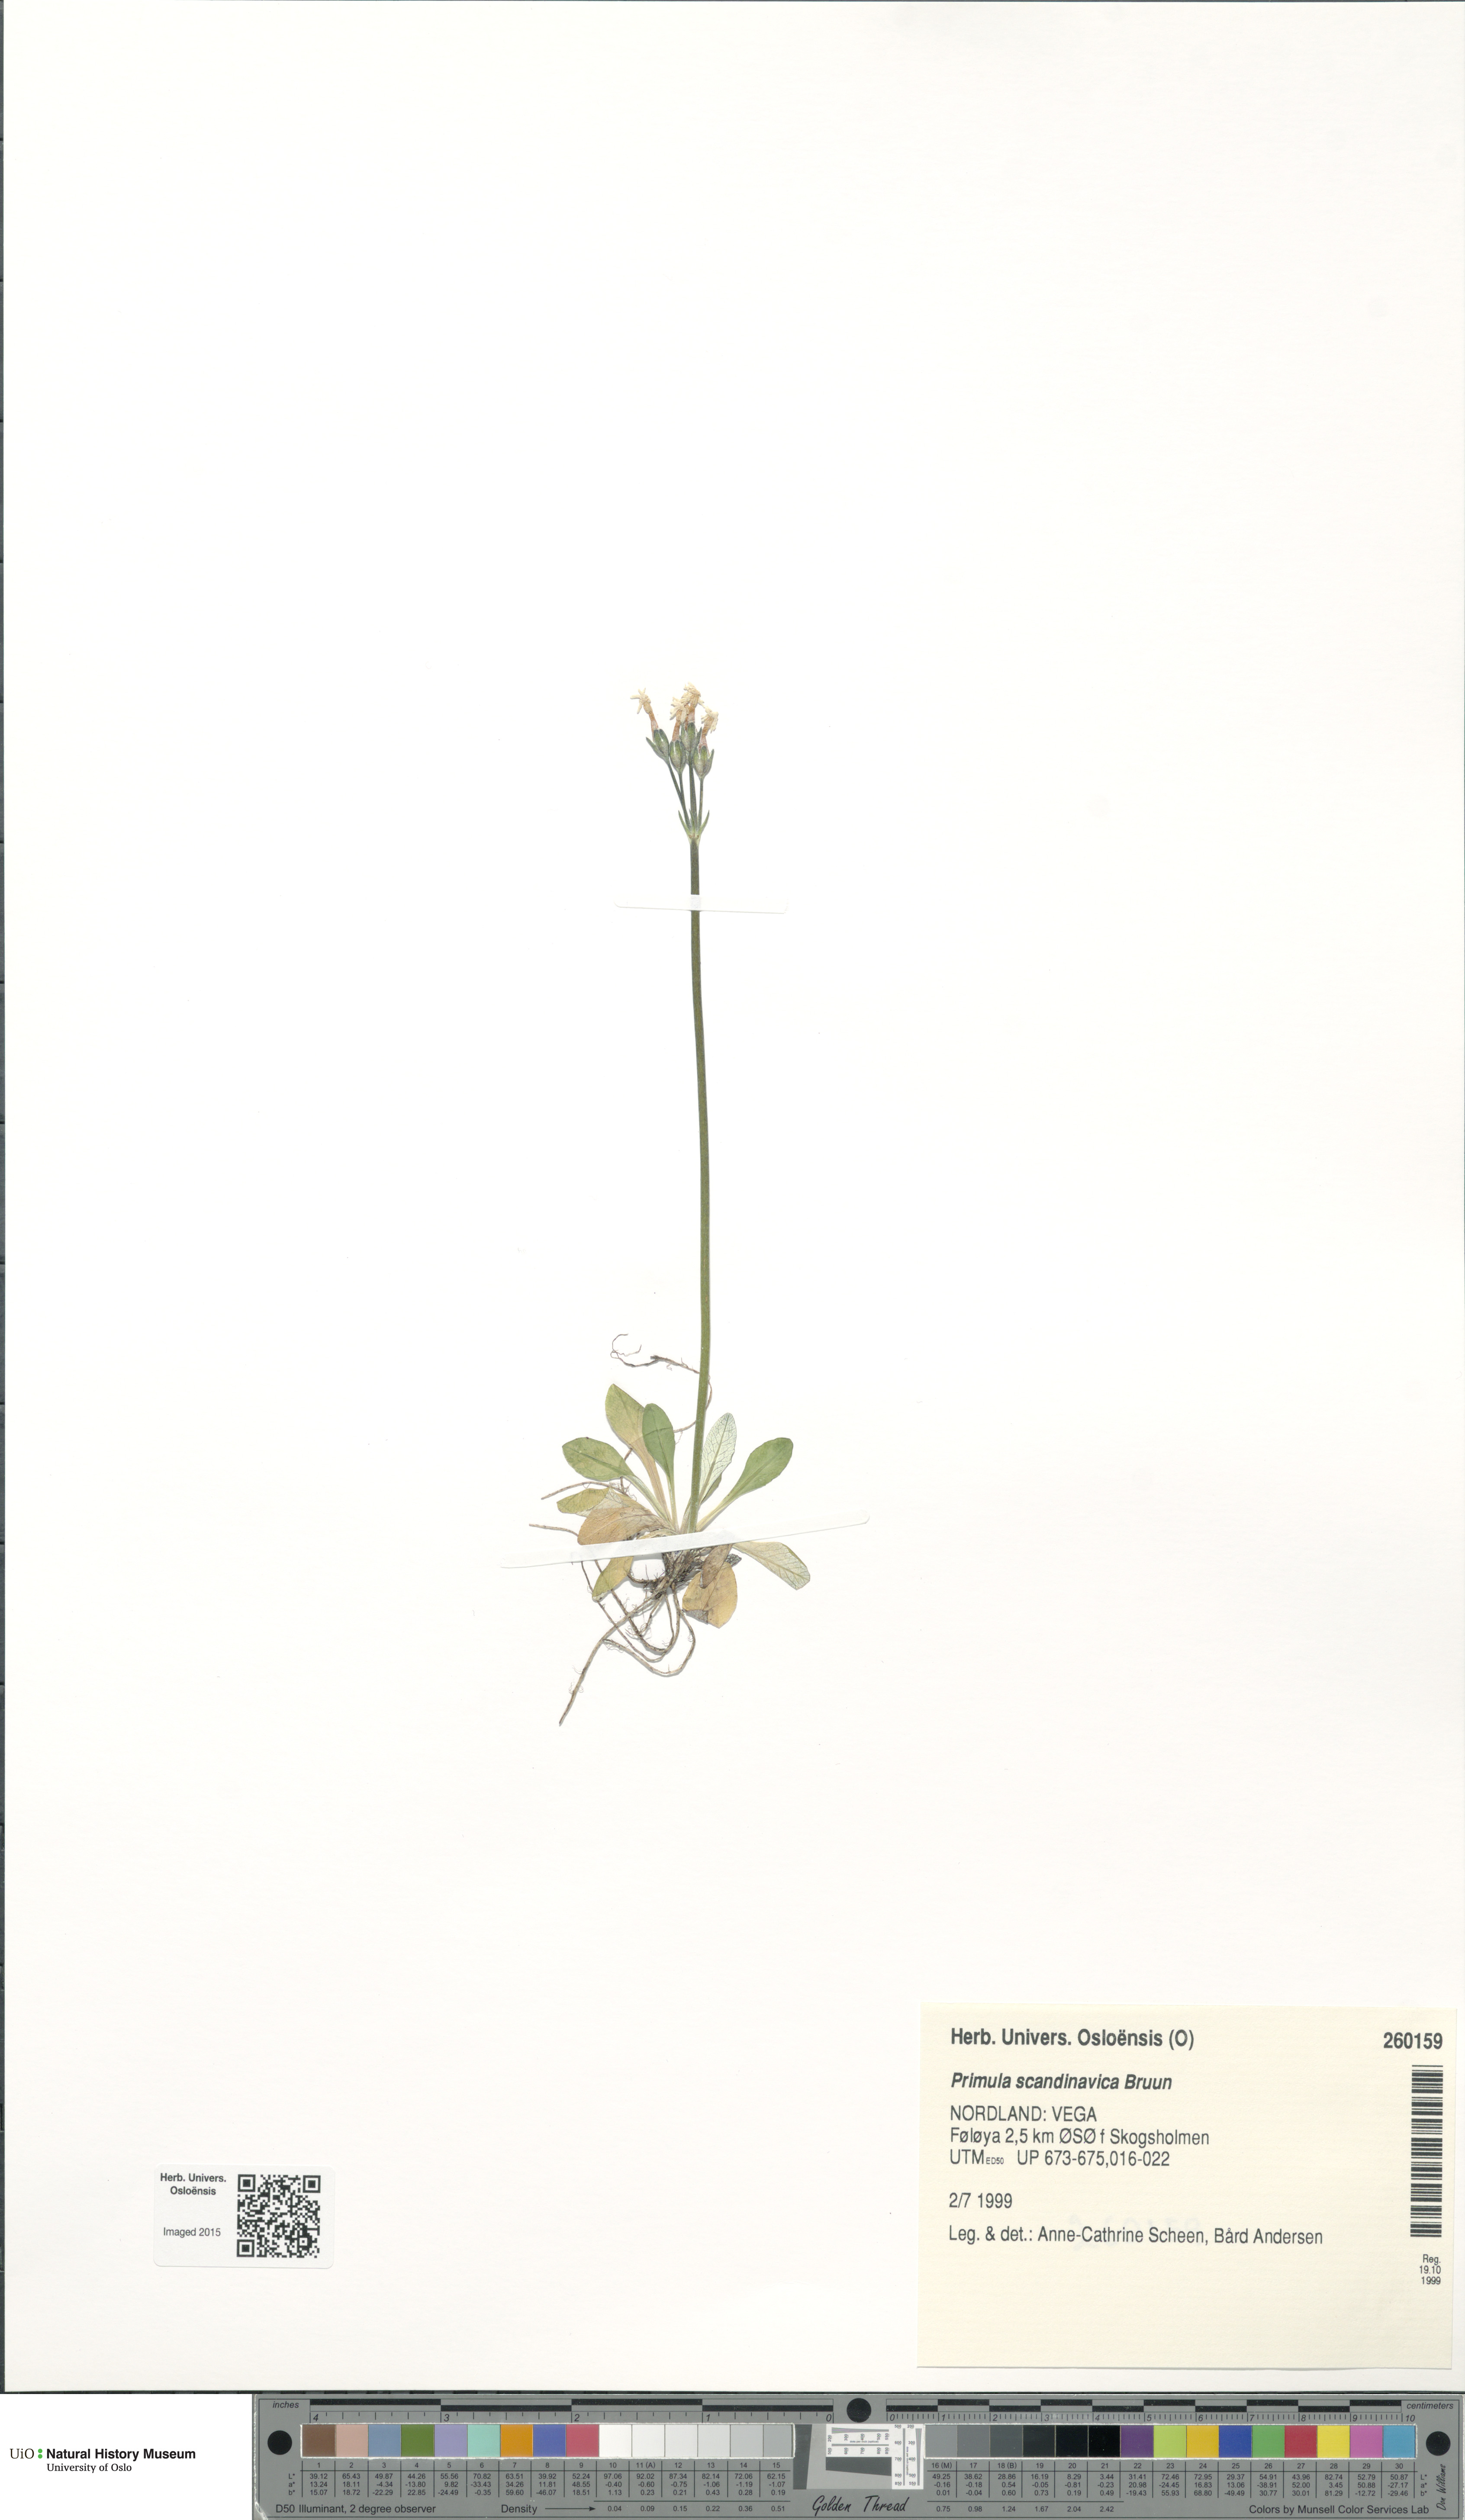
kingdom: Plantae
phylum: Tracheophyta
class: Magnoliopsida
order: Ericales
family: Primulaceae
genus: Primula
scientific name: Primula scandinavica
